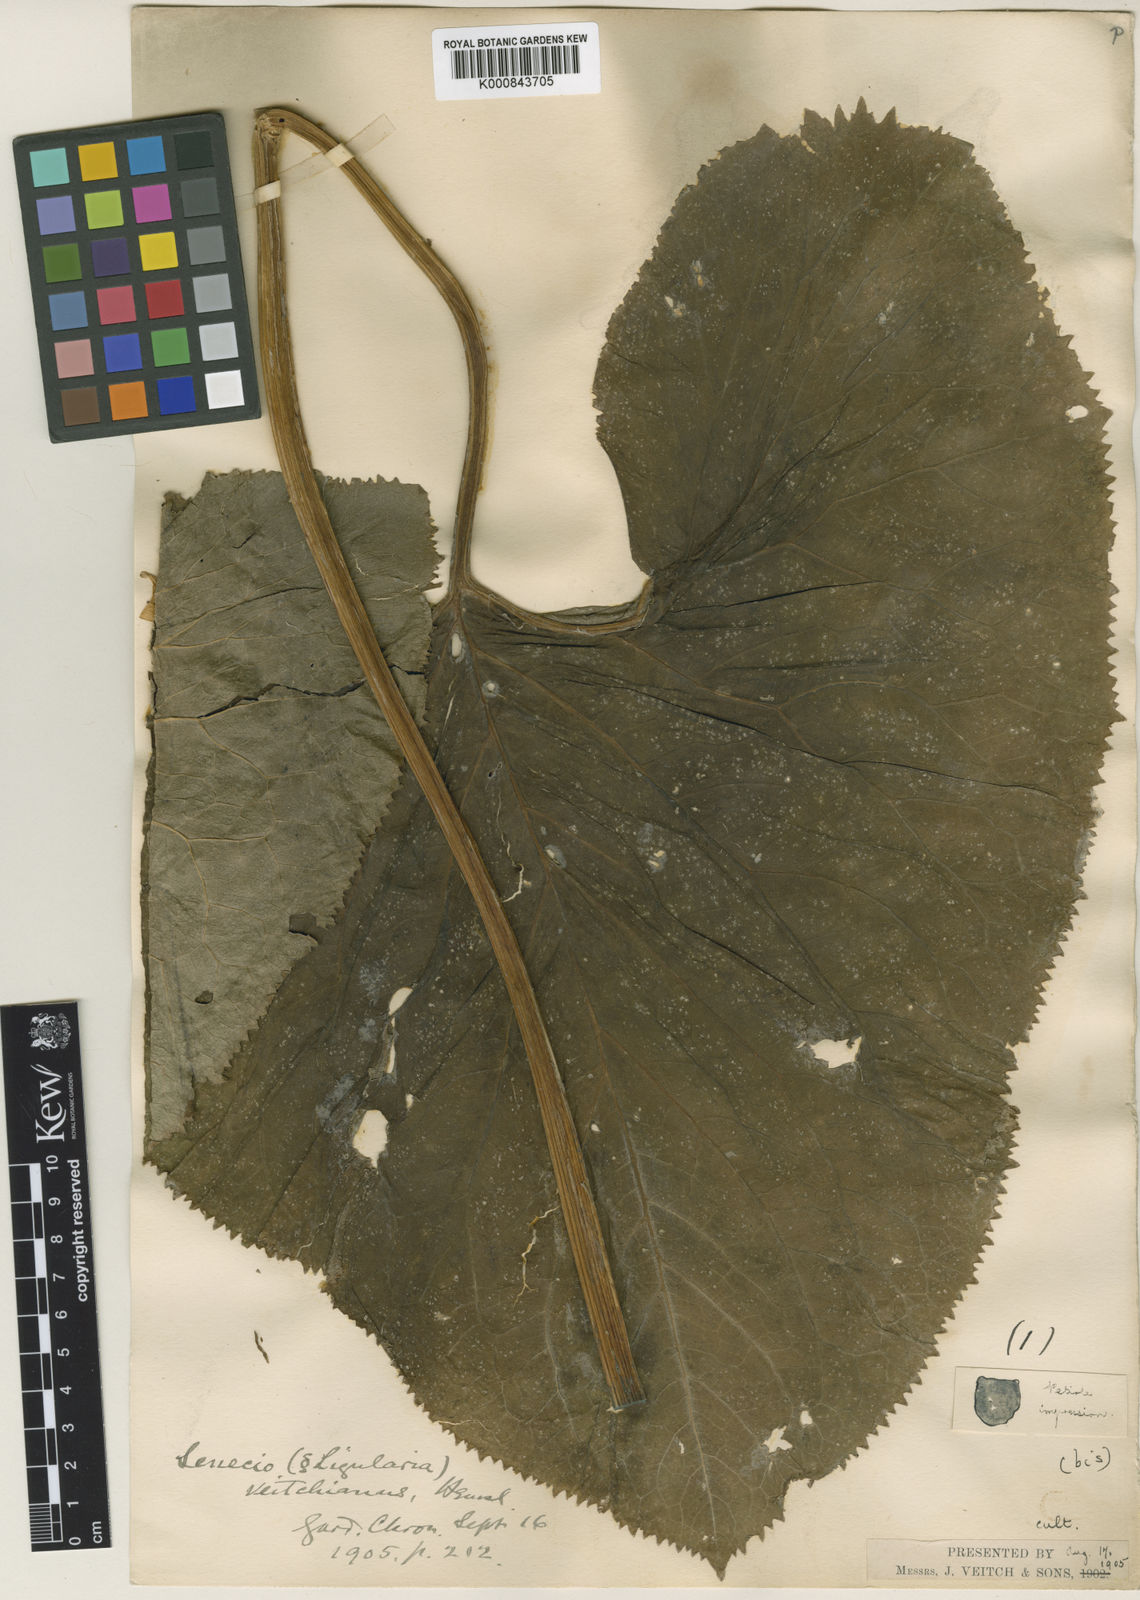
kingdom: Plantae
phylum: Tracheophyta
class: Magnoliopsida
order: Asterales
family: Asteraceae
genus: Senecio
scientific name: Senecio
